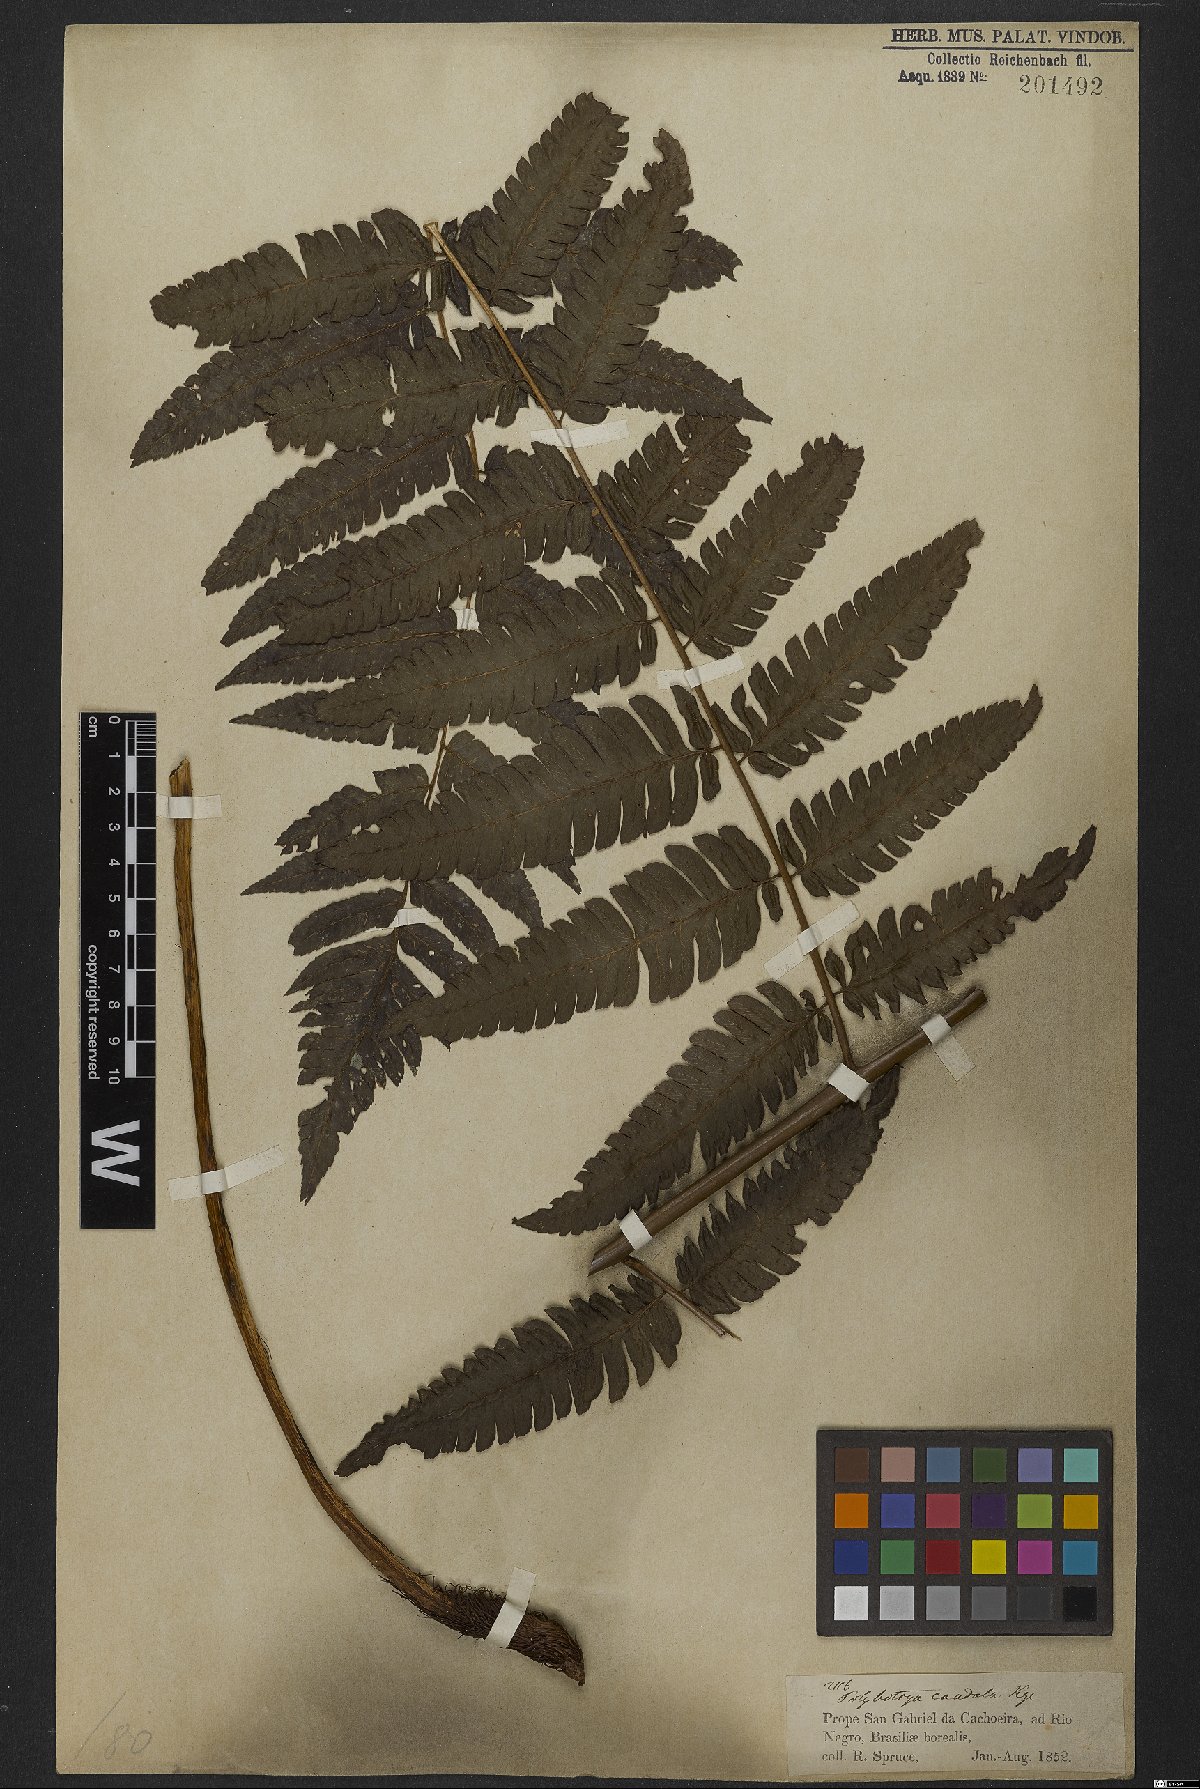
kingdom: Plantae
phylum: Tracheophyta
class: Polypodiopsida
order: Polypodiales
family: Dryopteridaceae
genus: Polybotrya
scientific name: Polybotrya caudata
